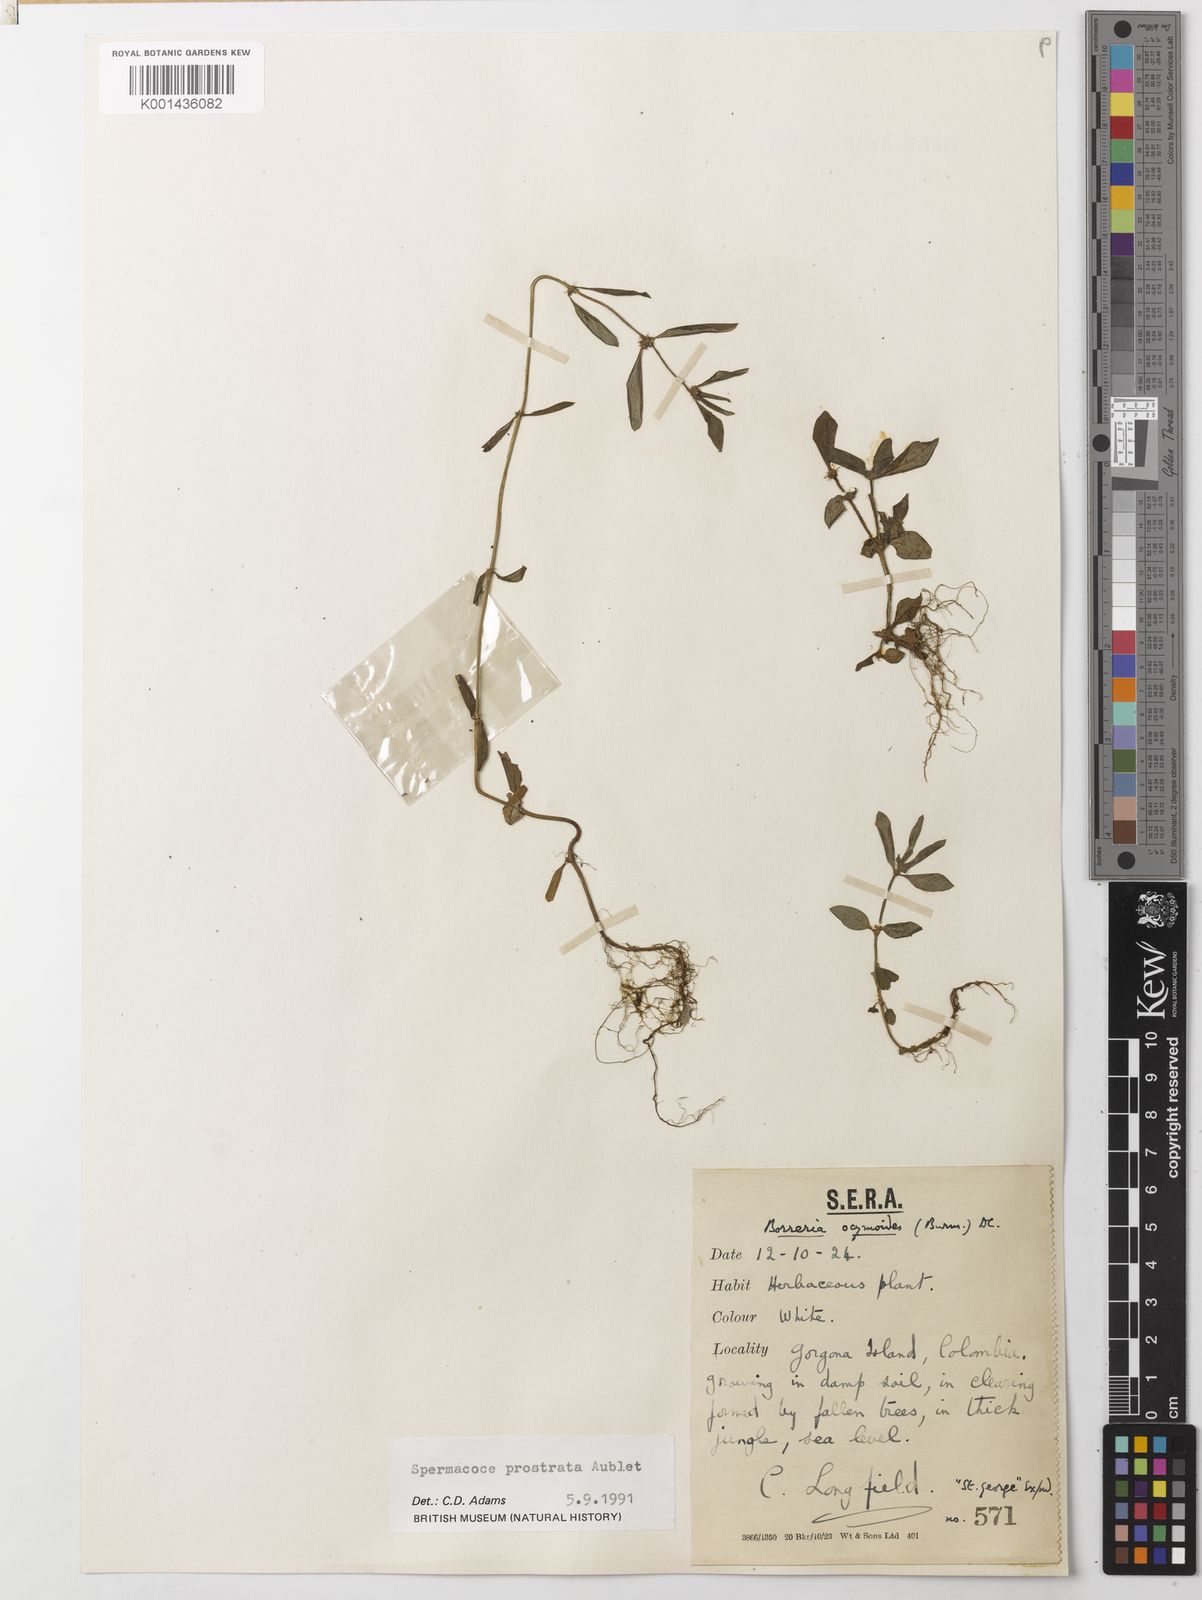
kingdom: Plantae
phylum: Tracheophyta
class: Magnoliopsida
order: Gentianales
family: Rubiaceae
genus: Spermacoce
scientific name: Spermacoce prostrata
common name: Prostrate false buttonweed
